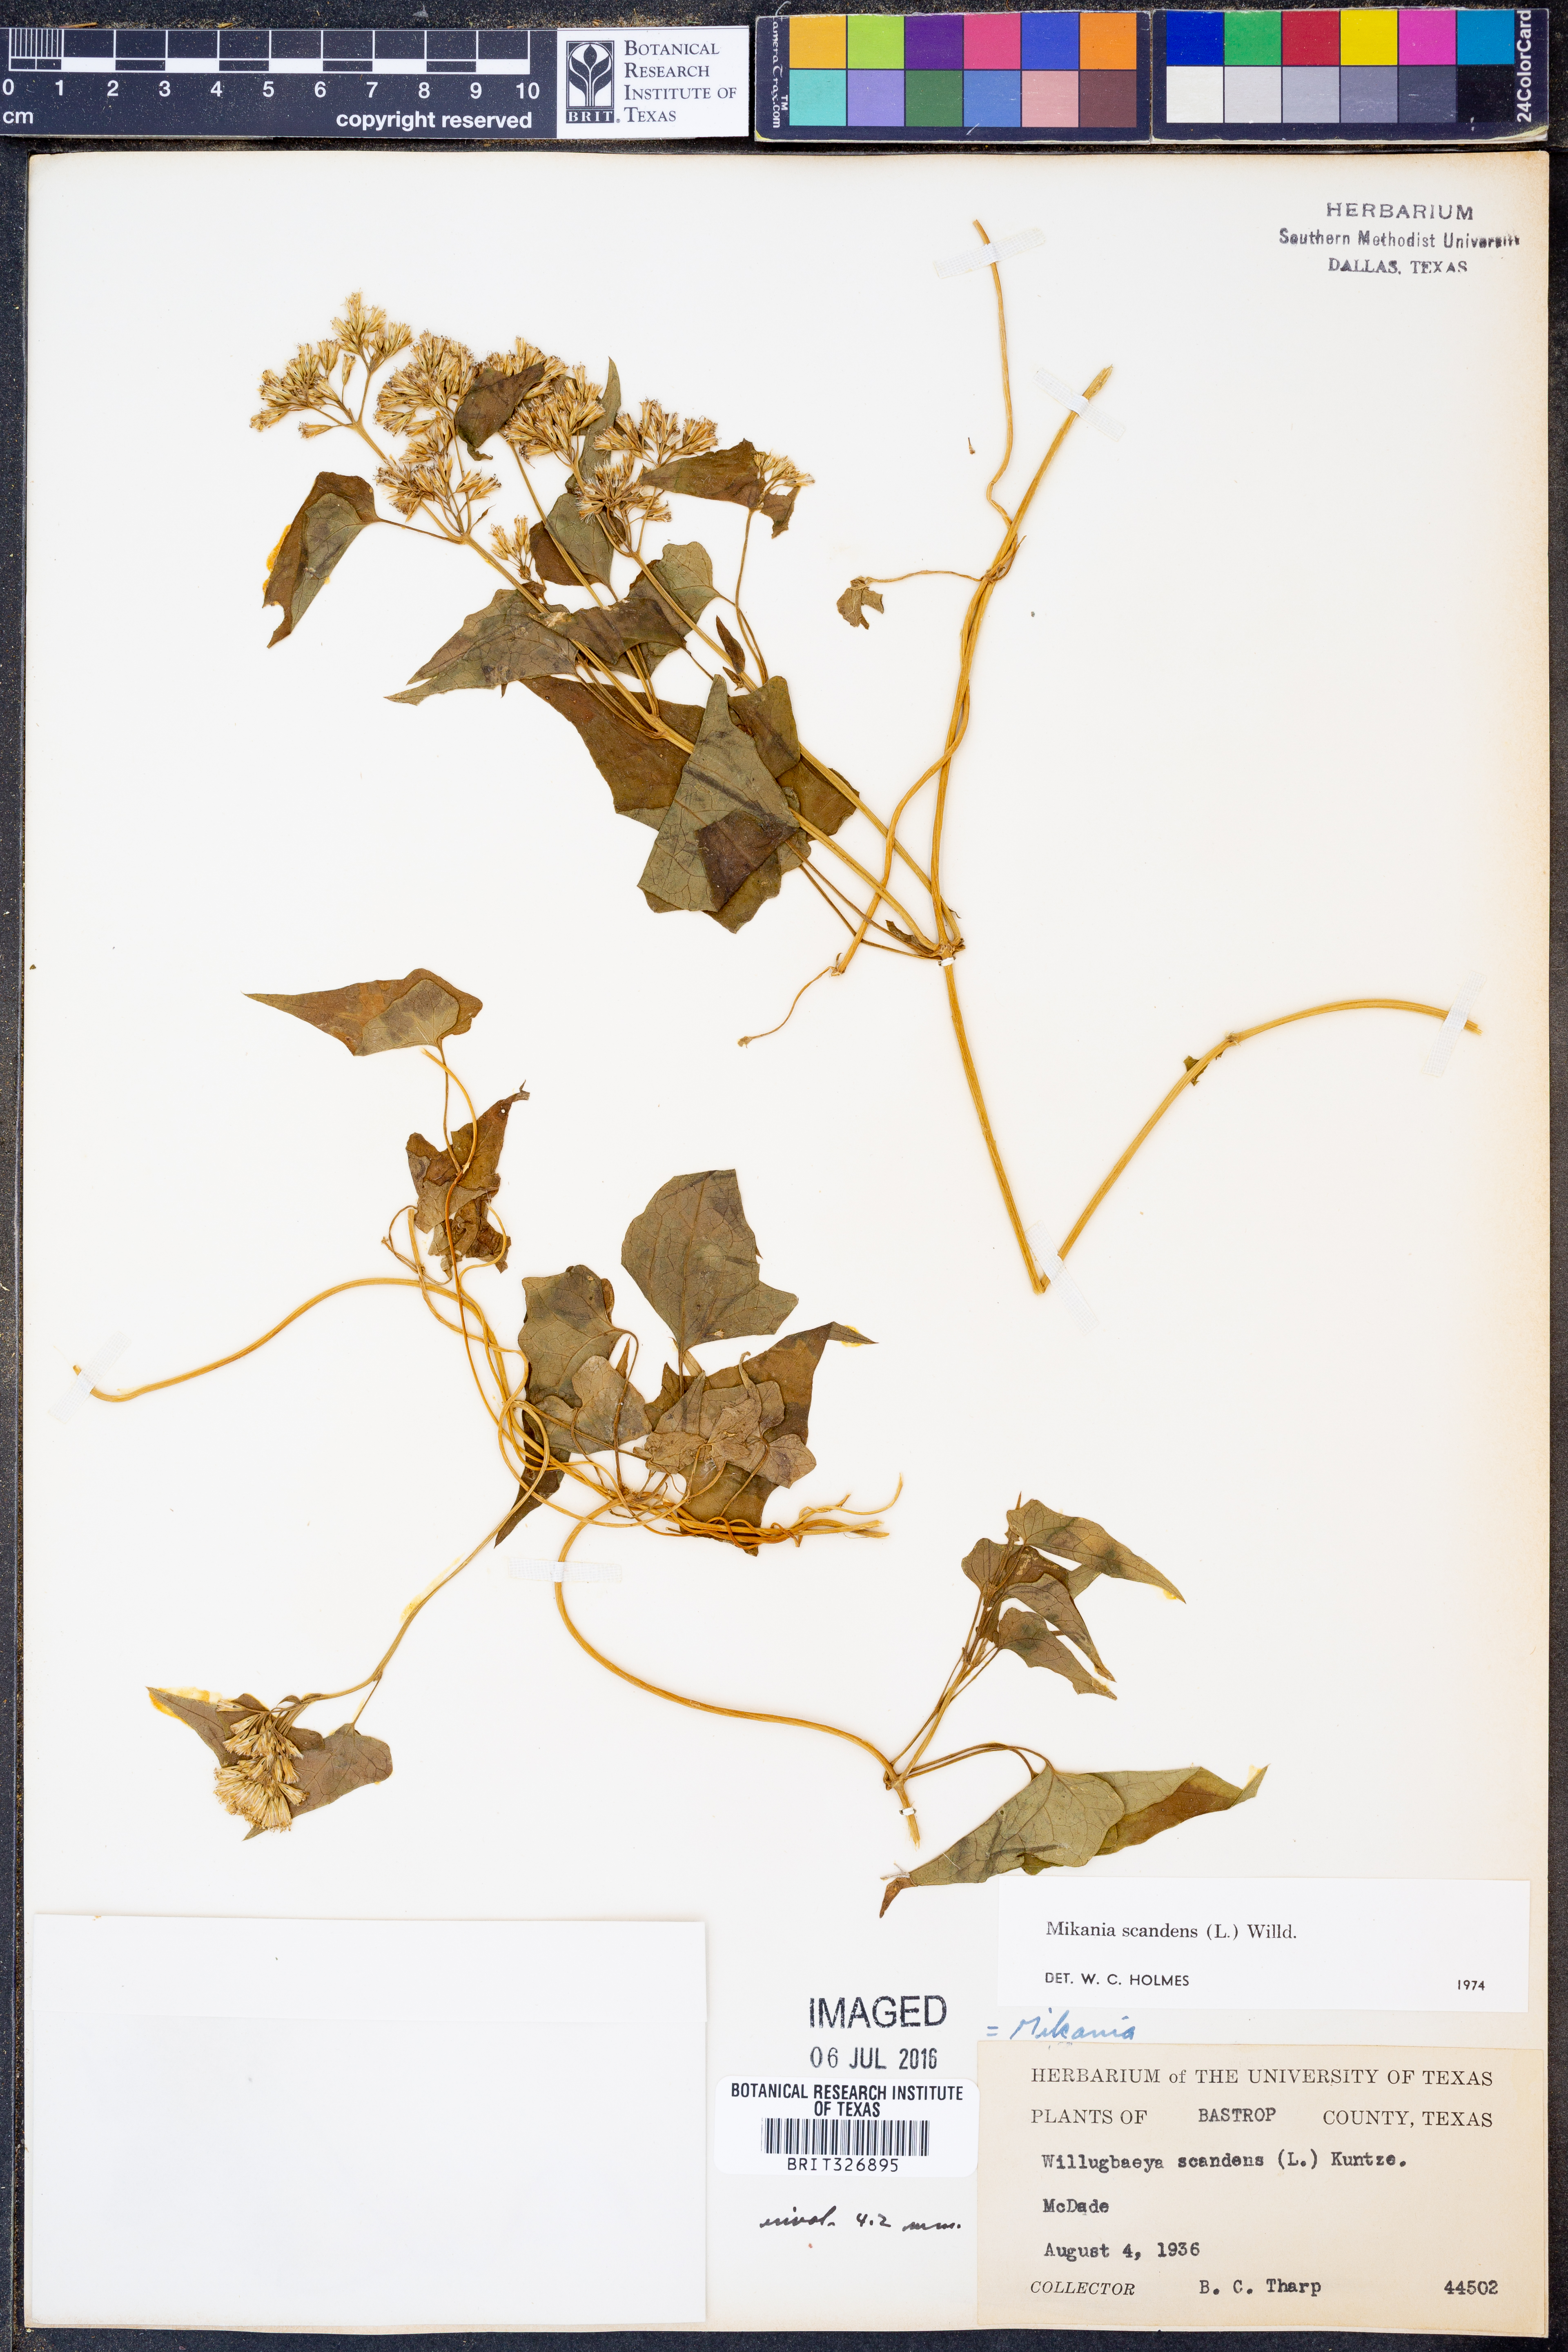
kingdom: Plantae
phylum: Tracheophyta
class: Magnoliopsida
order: Asterales
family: Asteraceae
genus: Mikania
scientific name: Mikania scandens
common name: Climbing hempvine
